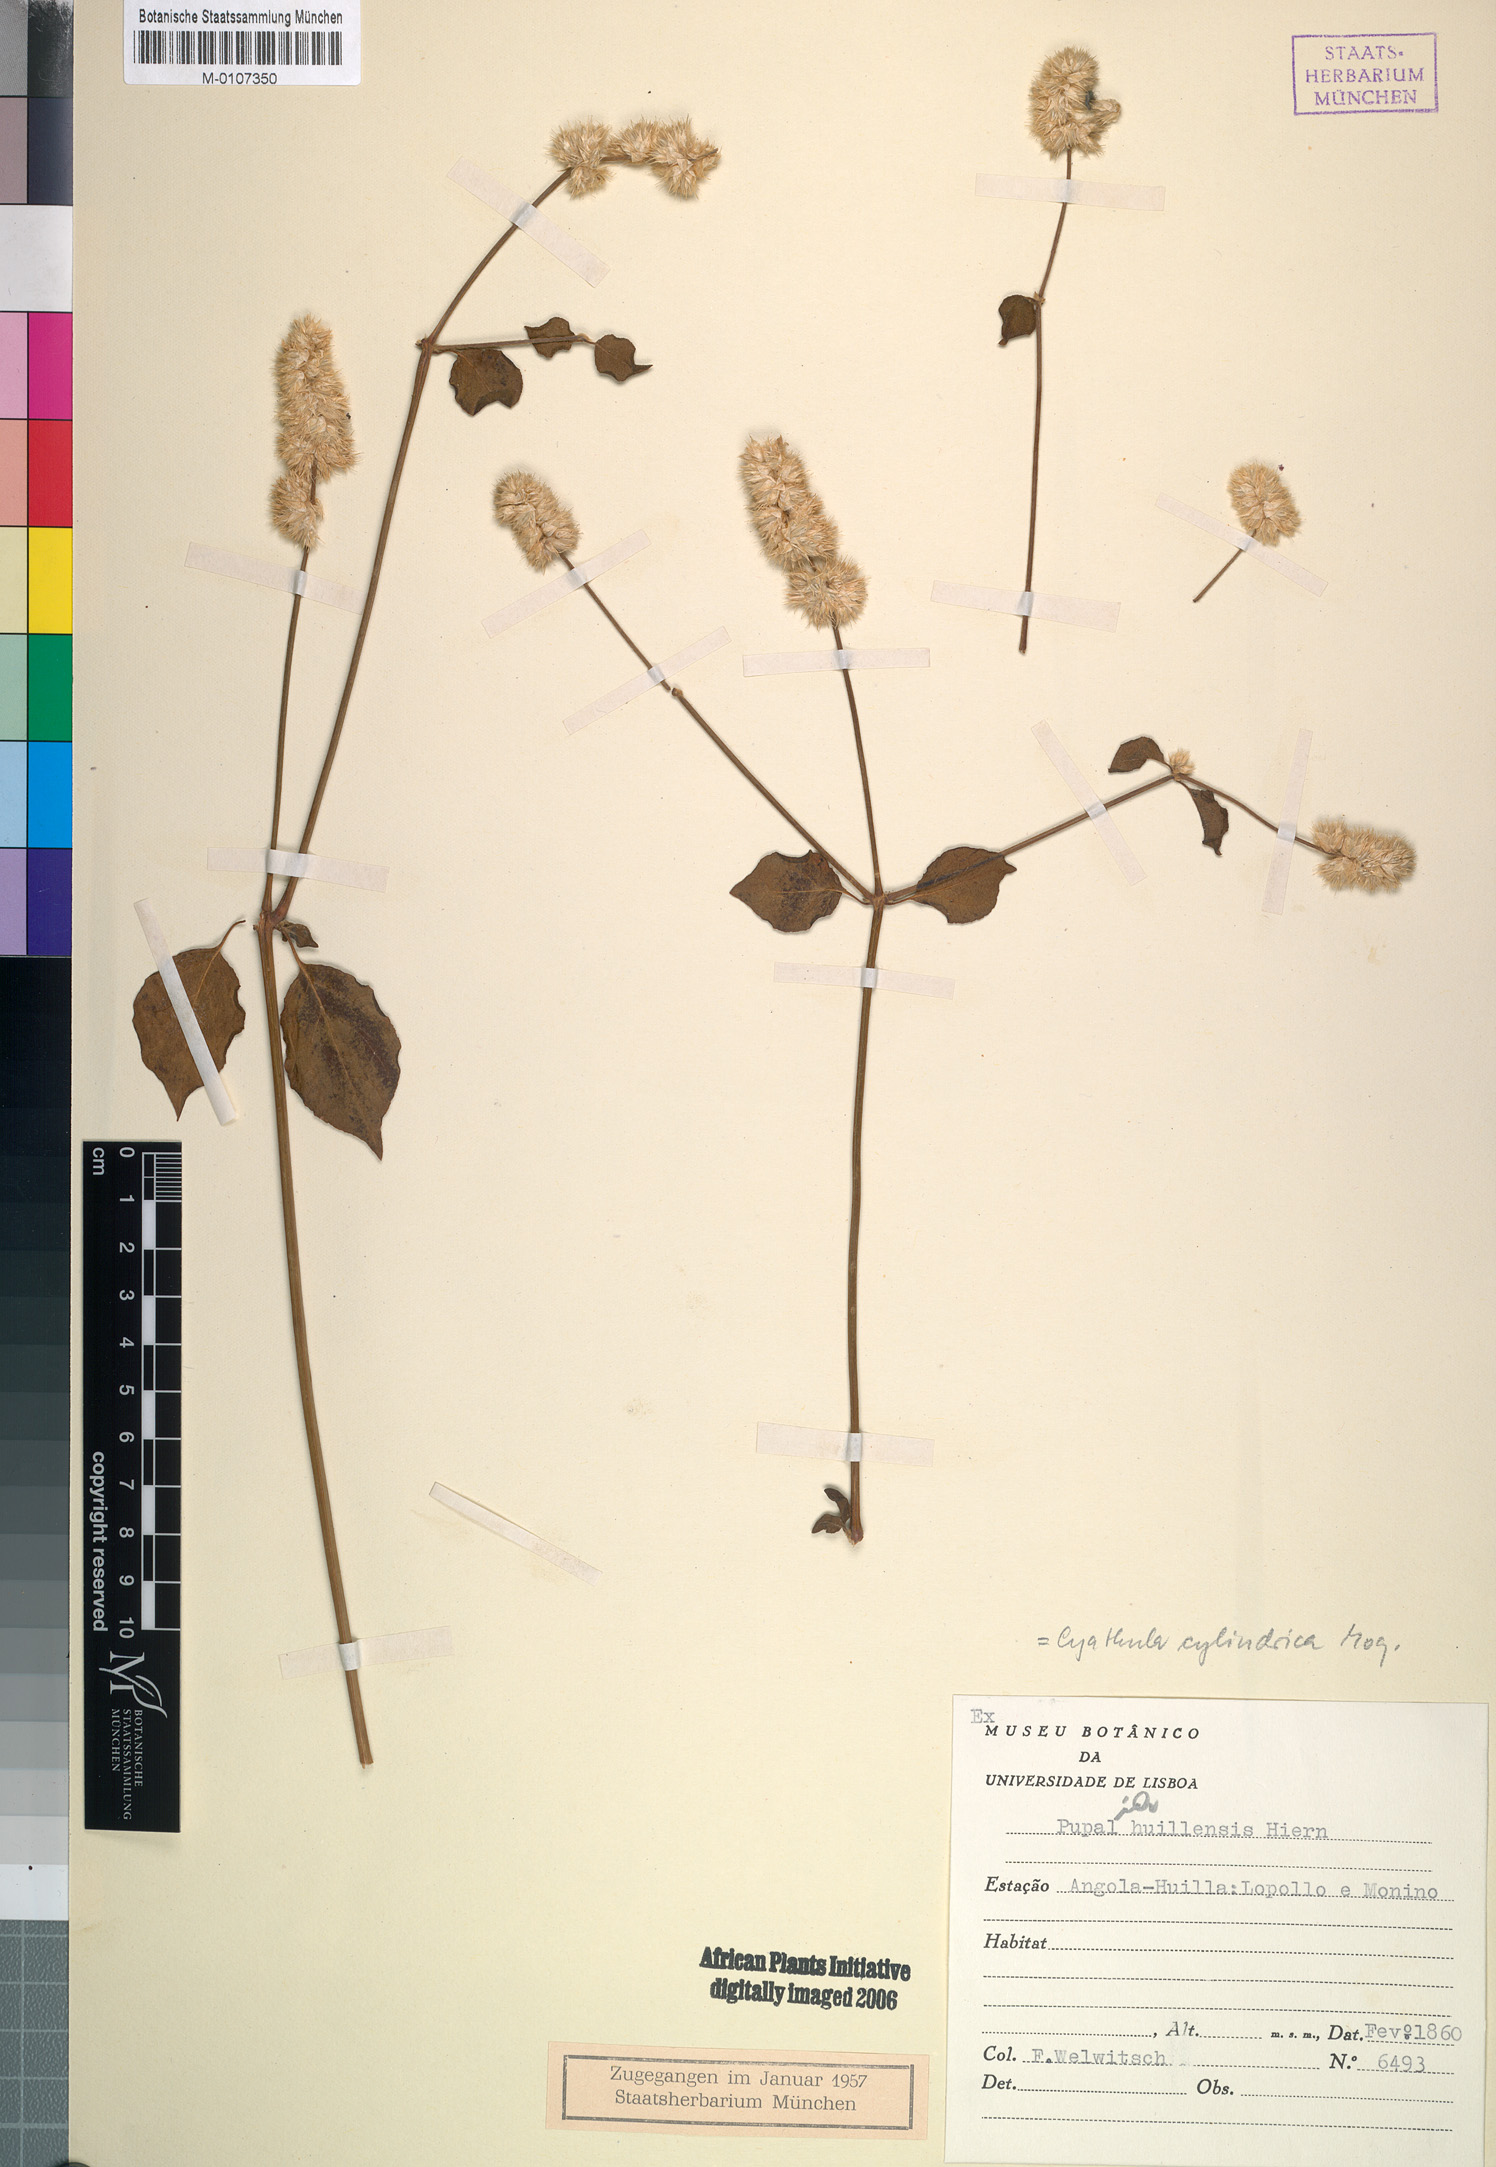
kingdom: Plantae
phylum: Tracheophyta
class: Magnoliopsida
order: Caryophyllales
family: Amaranthaceae
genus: Cyathula
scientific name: Cyathula cylindrica
